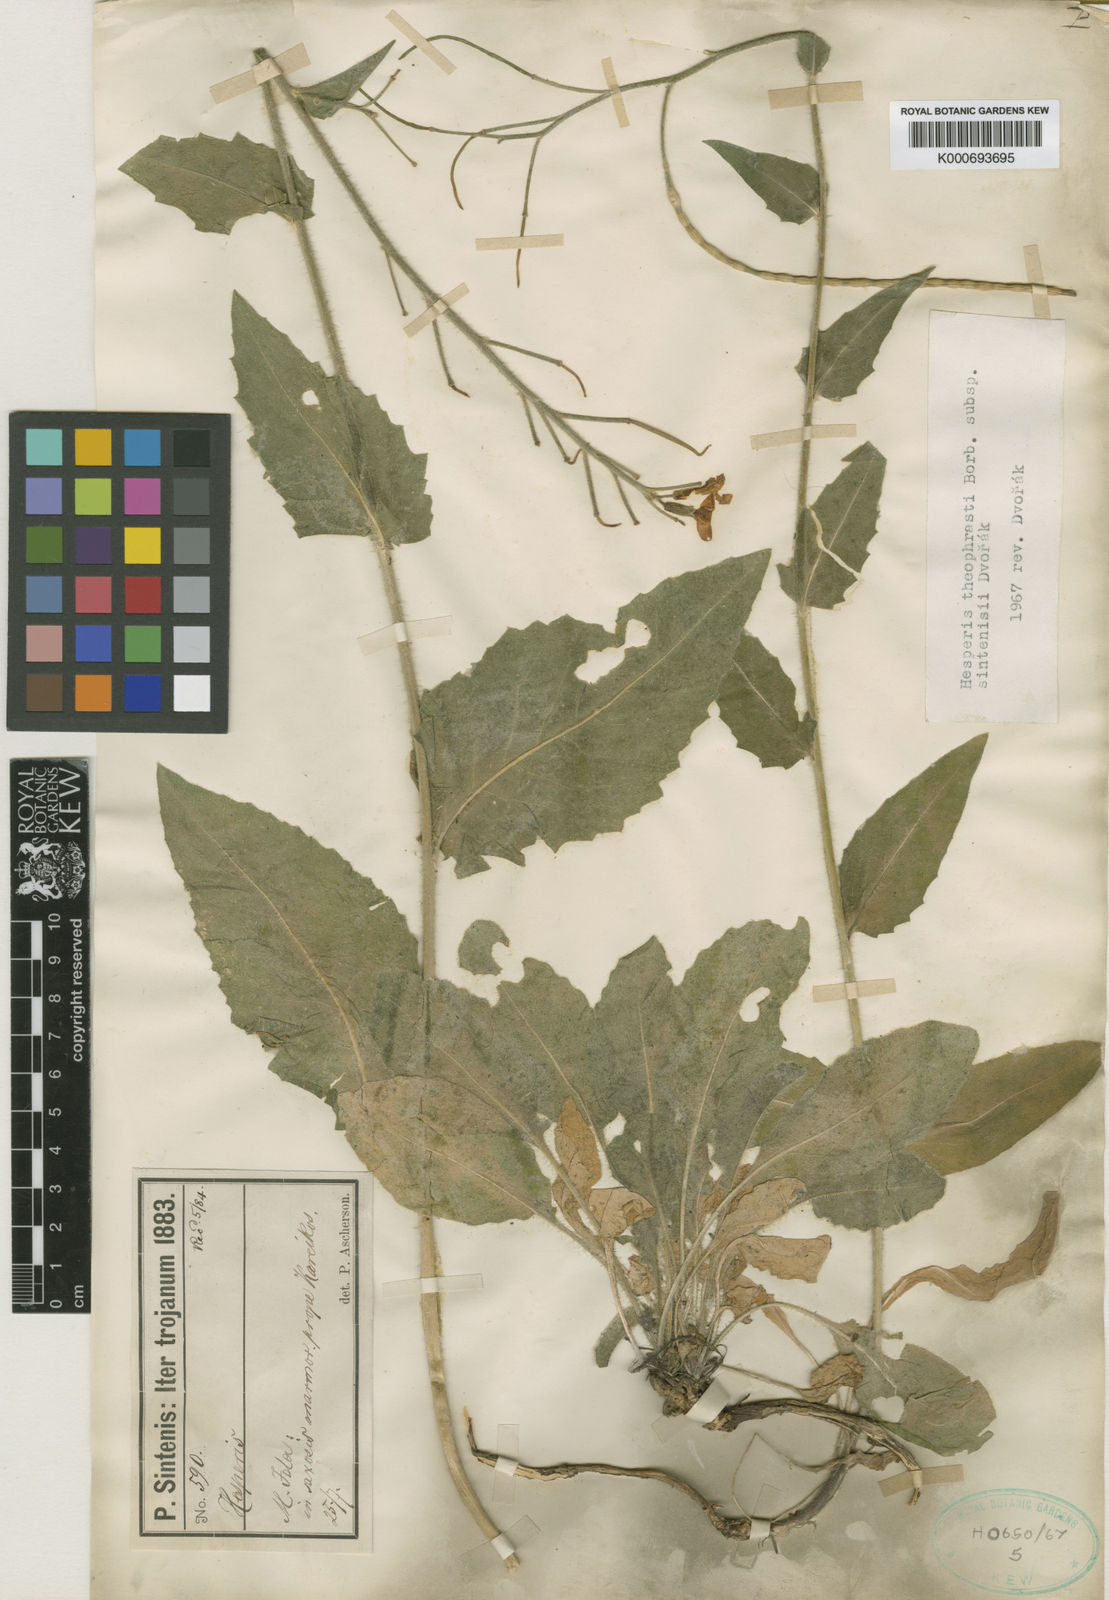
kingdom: Plantae
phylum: Tracheophyta
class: Magnoliopsida
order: Brassicales
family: Brassicaceae
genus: Hesperis
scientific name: Hesperis
